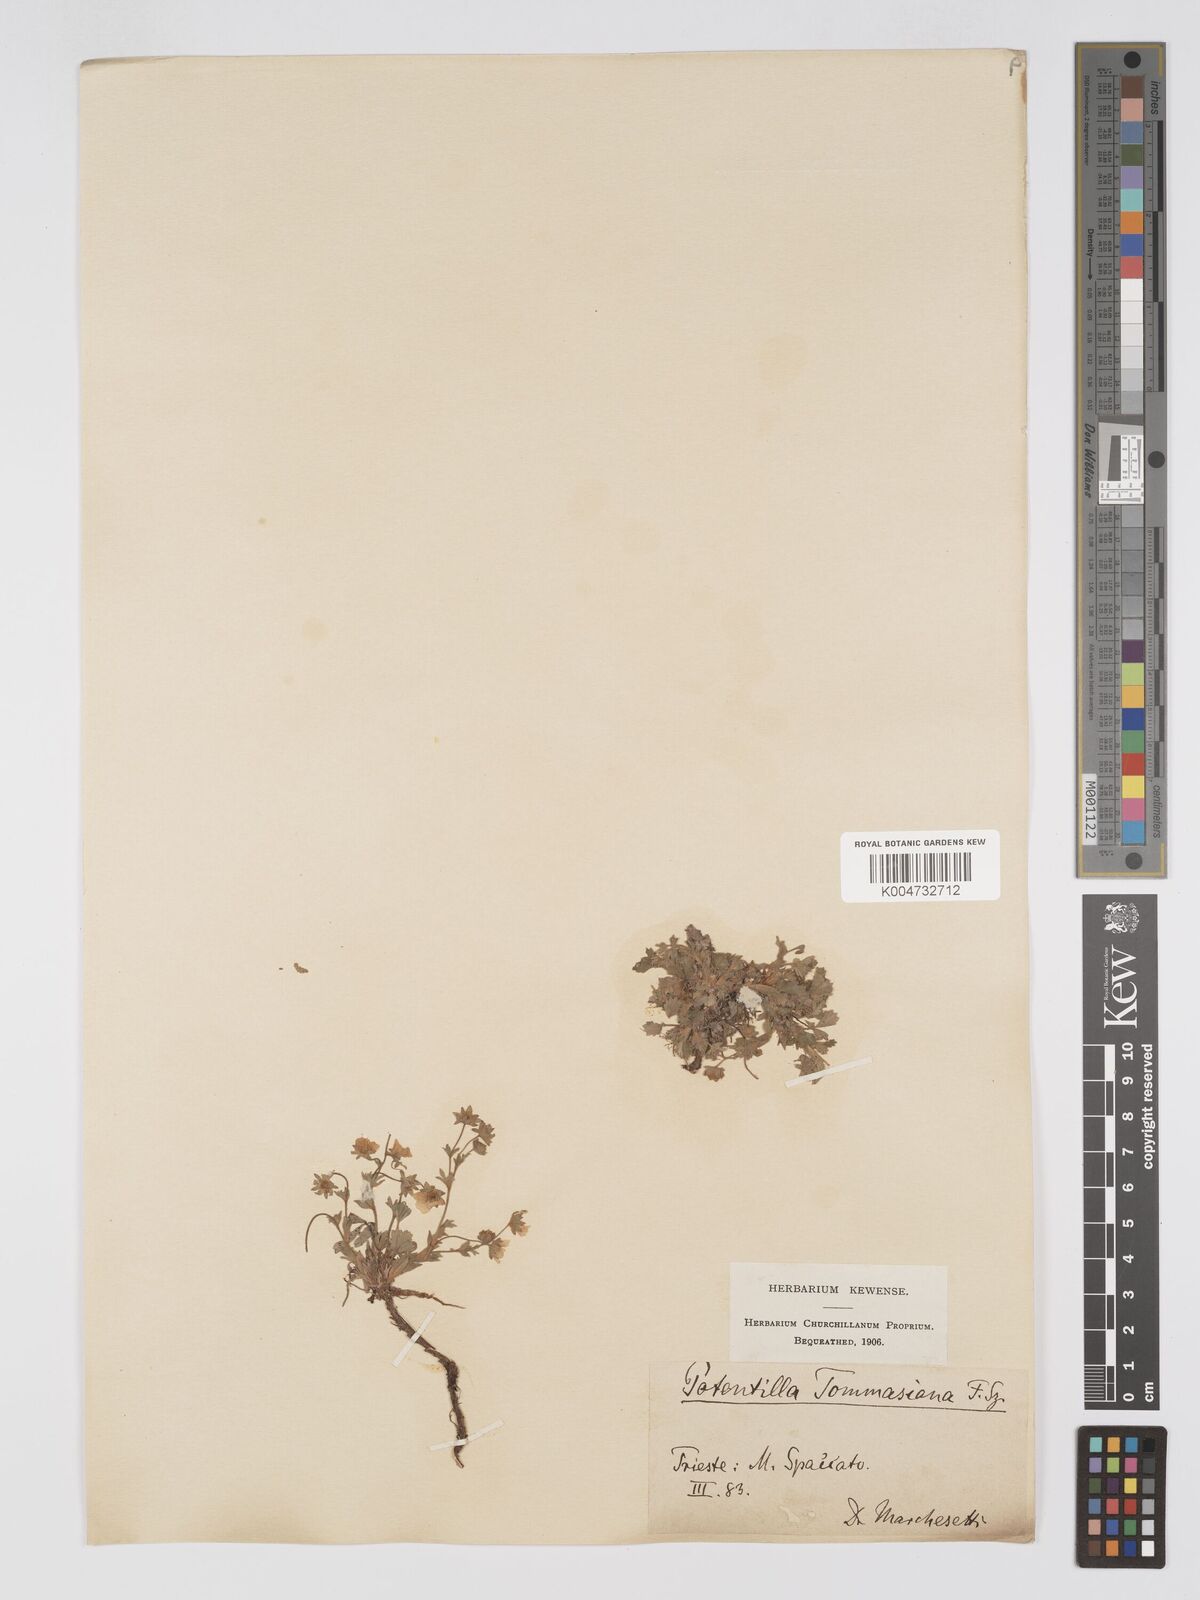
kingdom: Plantae
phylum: Tracheophyta
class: Magnoliopsida
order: Rosales
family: Rosaceae
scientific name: Rosaceae
